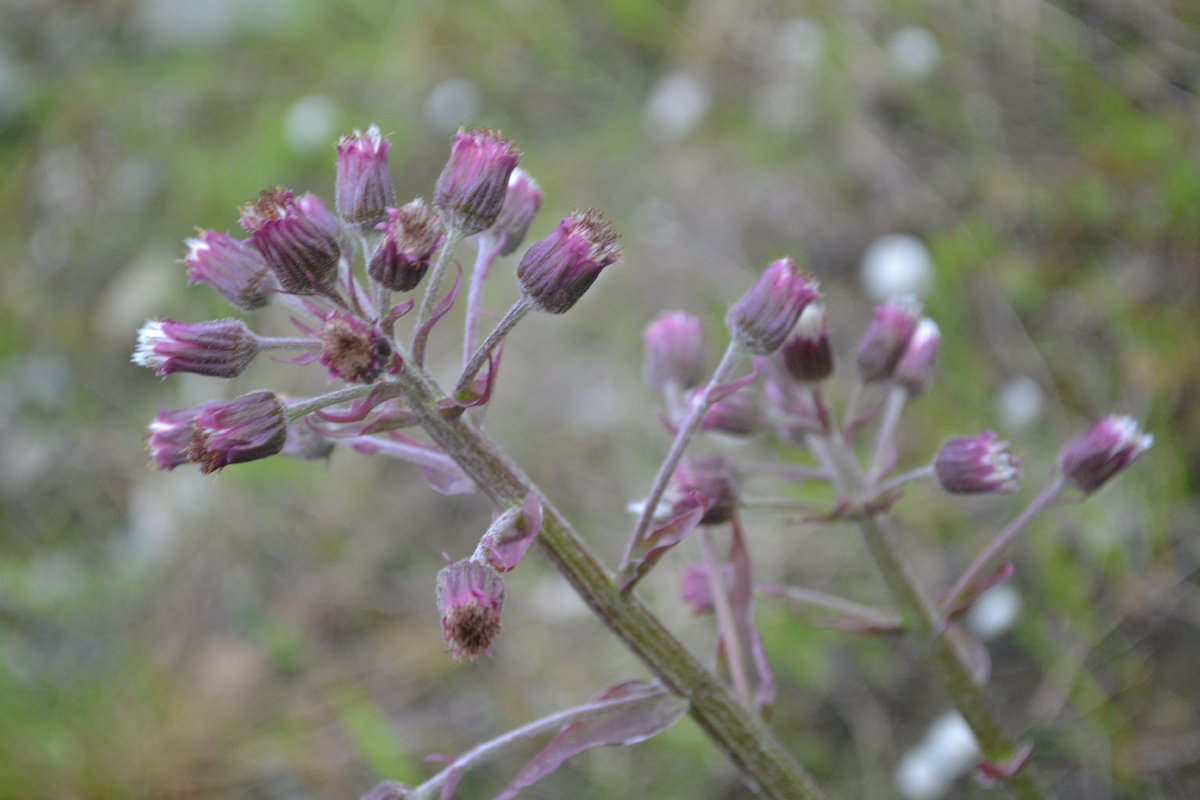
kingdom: Plantae
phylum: Tracheophyta
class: Magnoliopsida
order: Asterales
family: Asteraceae
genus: Petasites
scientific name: Petasites frigidus
